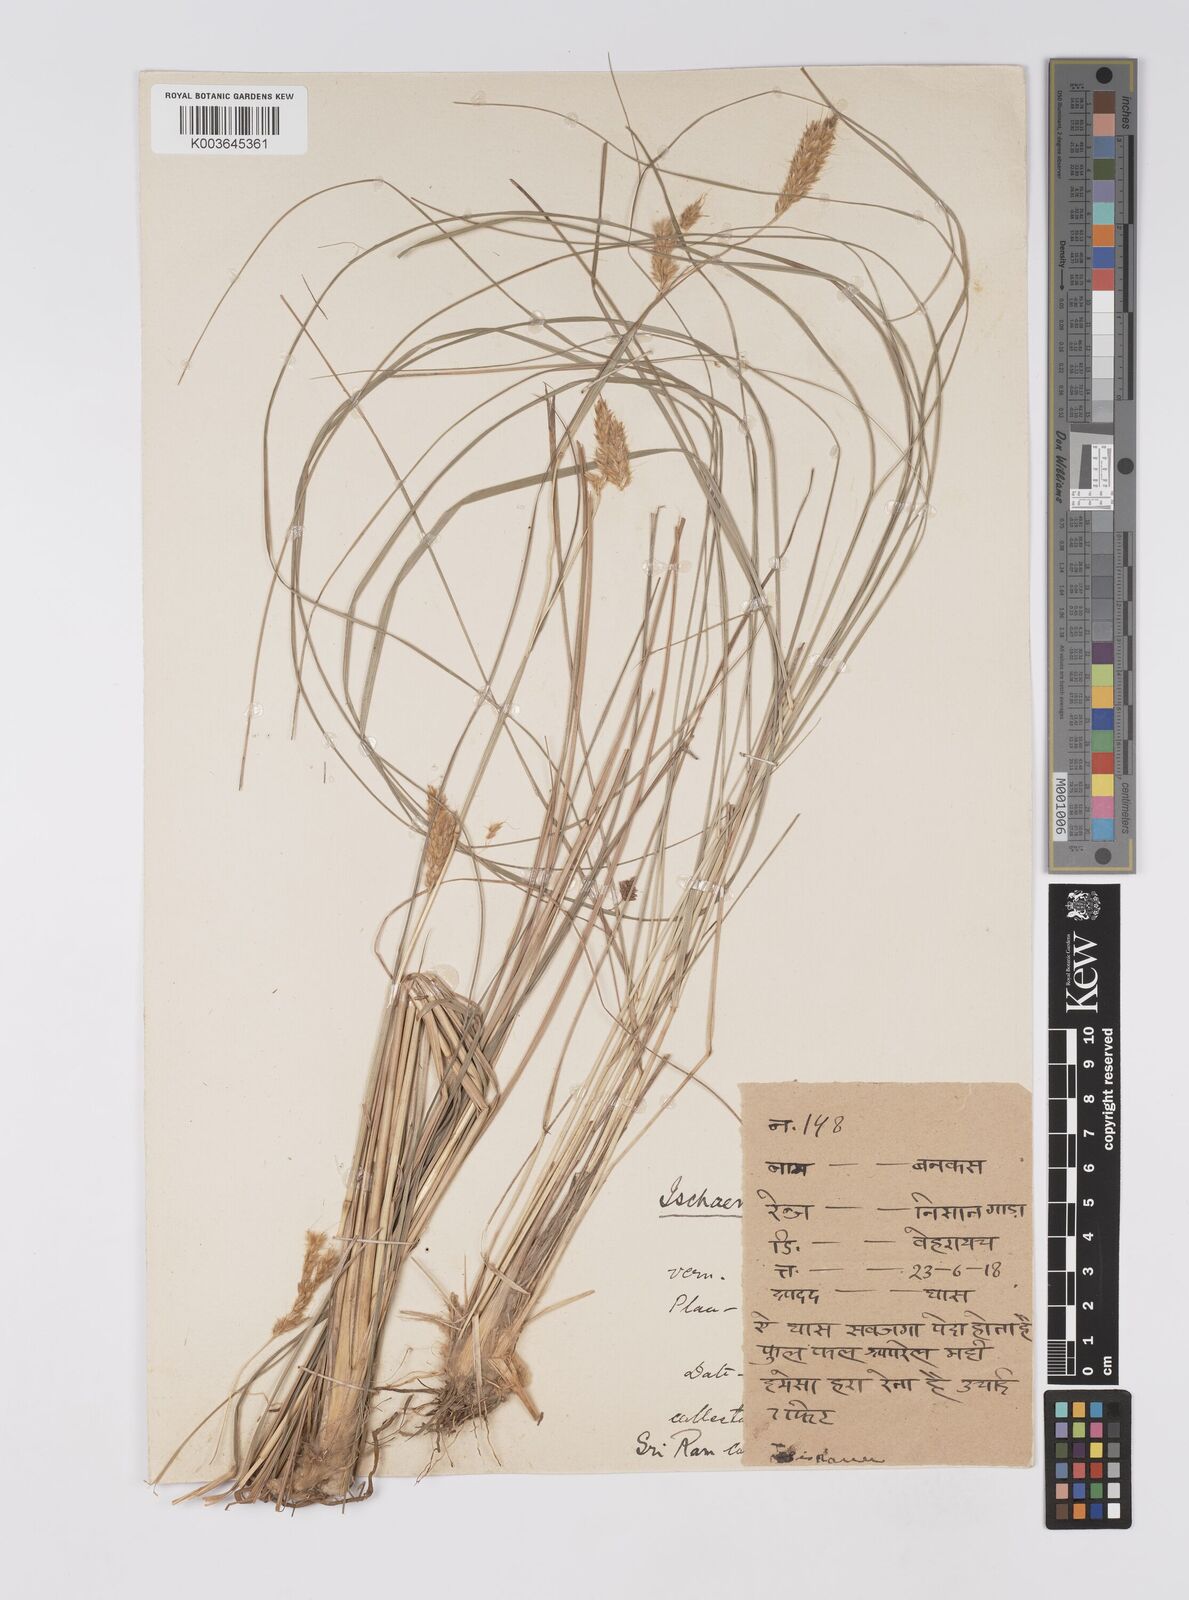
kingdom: Plantae
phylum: Tracheophyta
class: Liliopsida
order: Poales
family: Poaceae
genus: Eulaliopsis
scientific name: Eulaliopsis binata
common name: Baib grass
